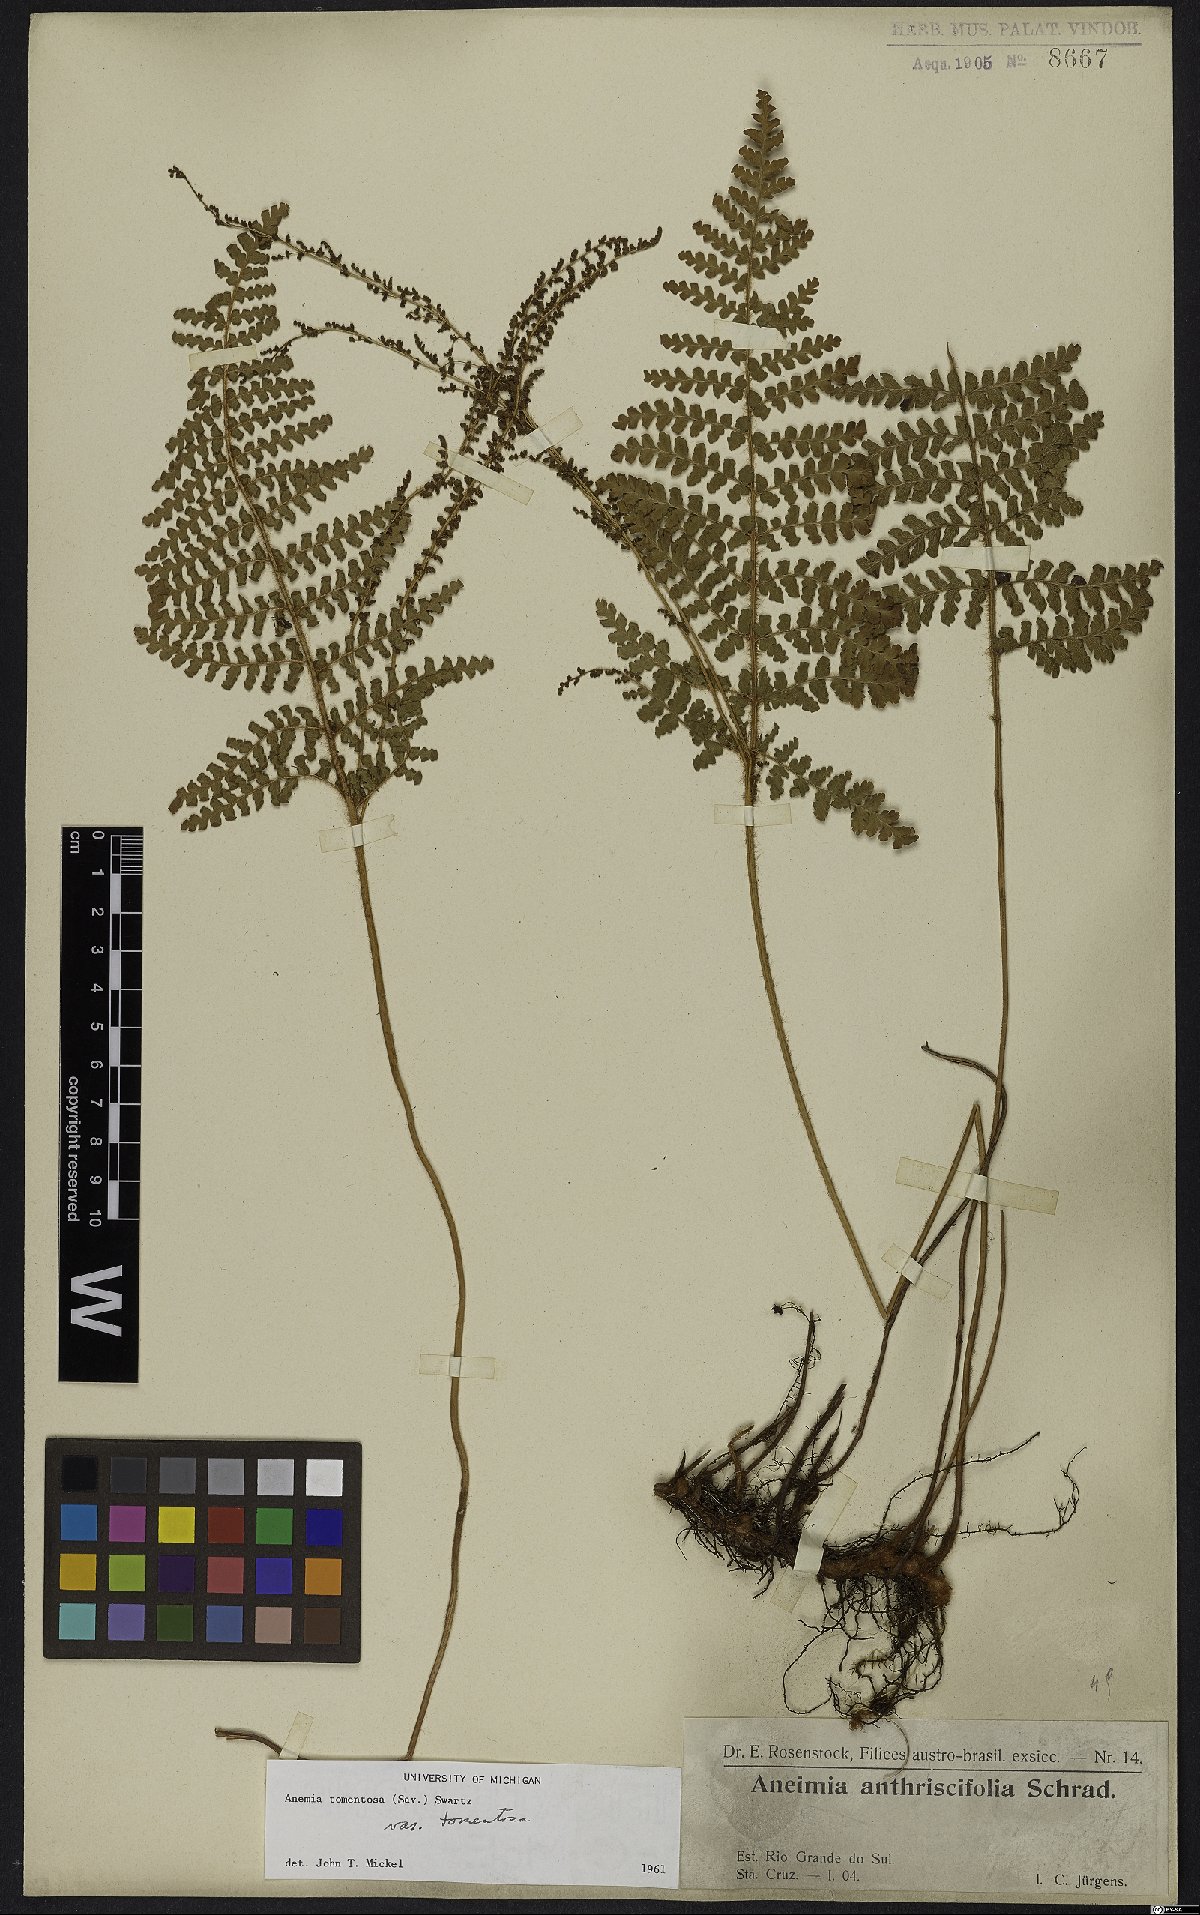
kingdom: Plantae
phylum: Tracheophyta
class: Polypodiopsida
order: Schizaeales
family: Anemiaceae
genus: Anemia
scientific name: Anemia tomentosa
